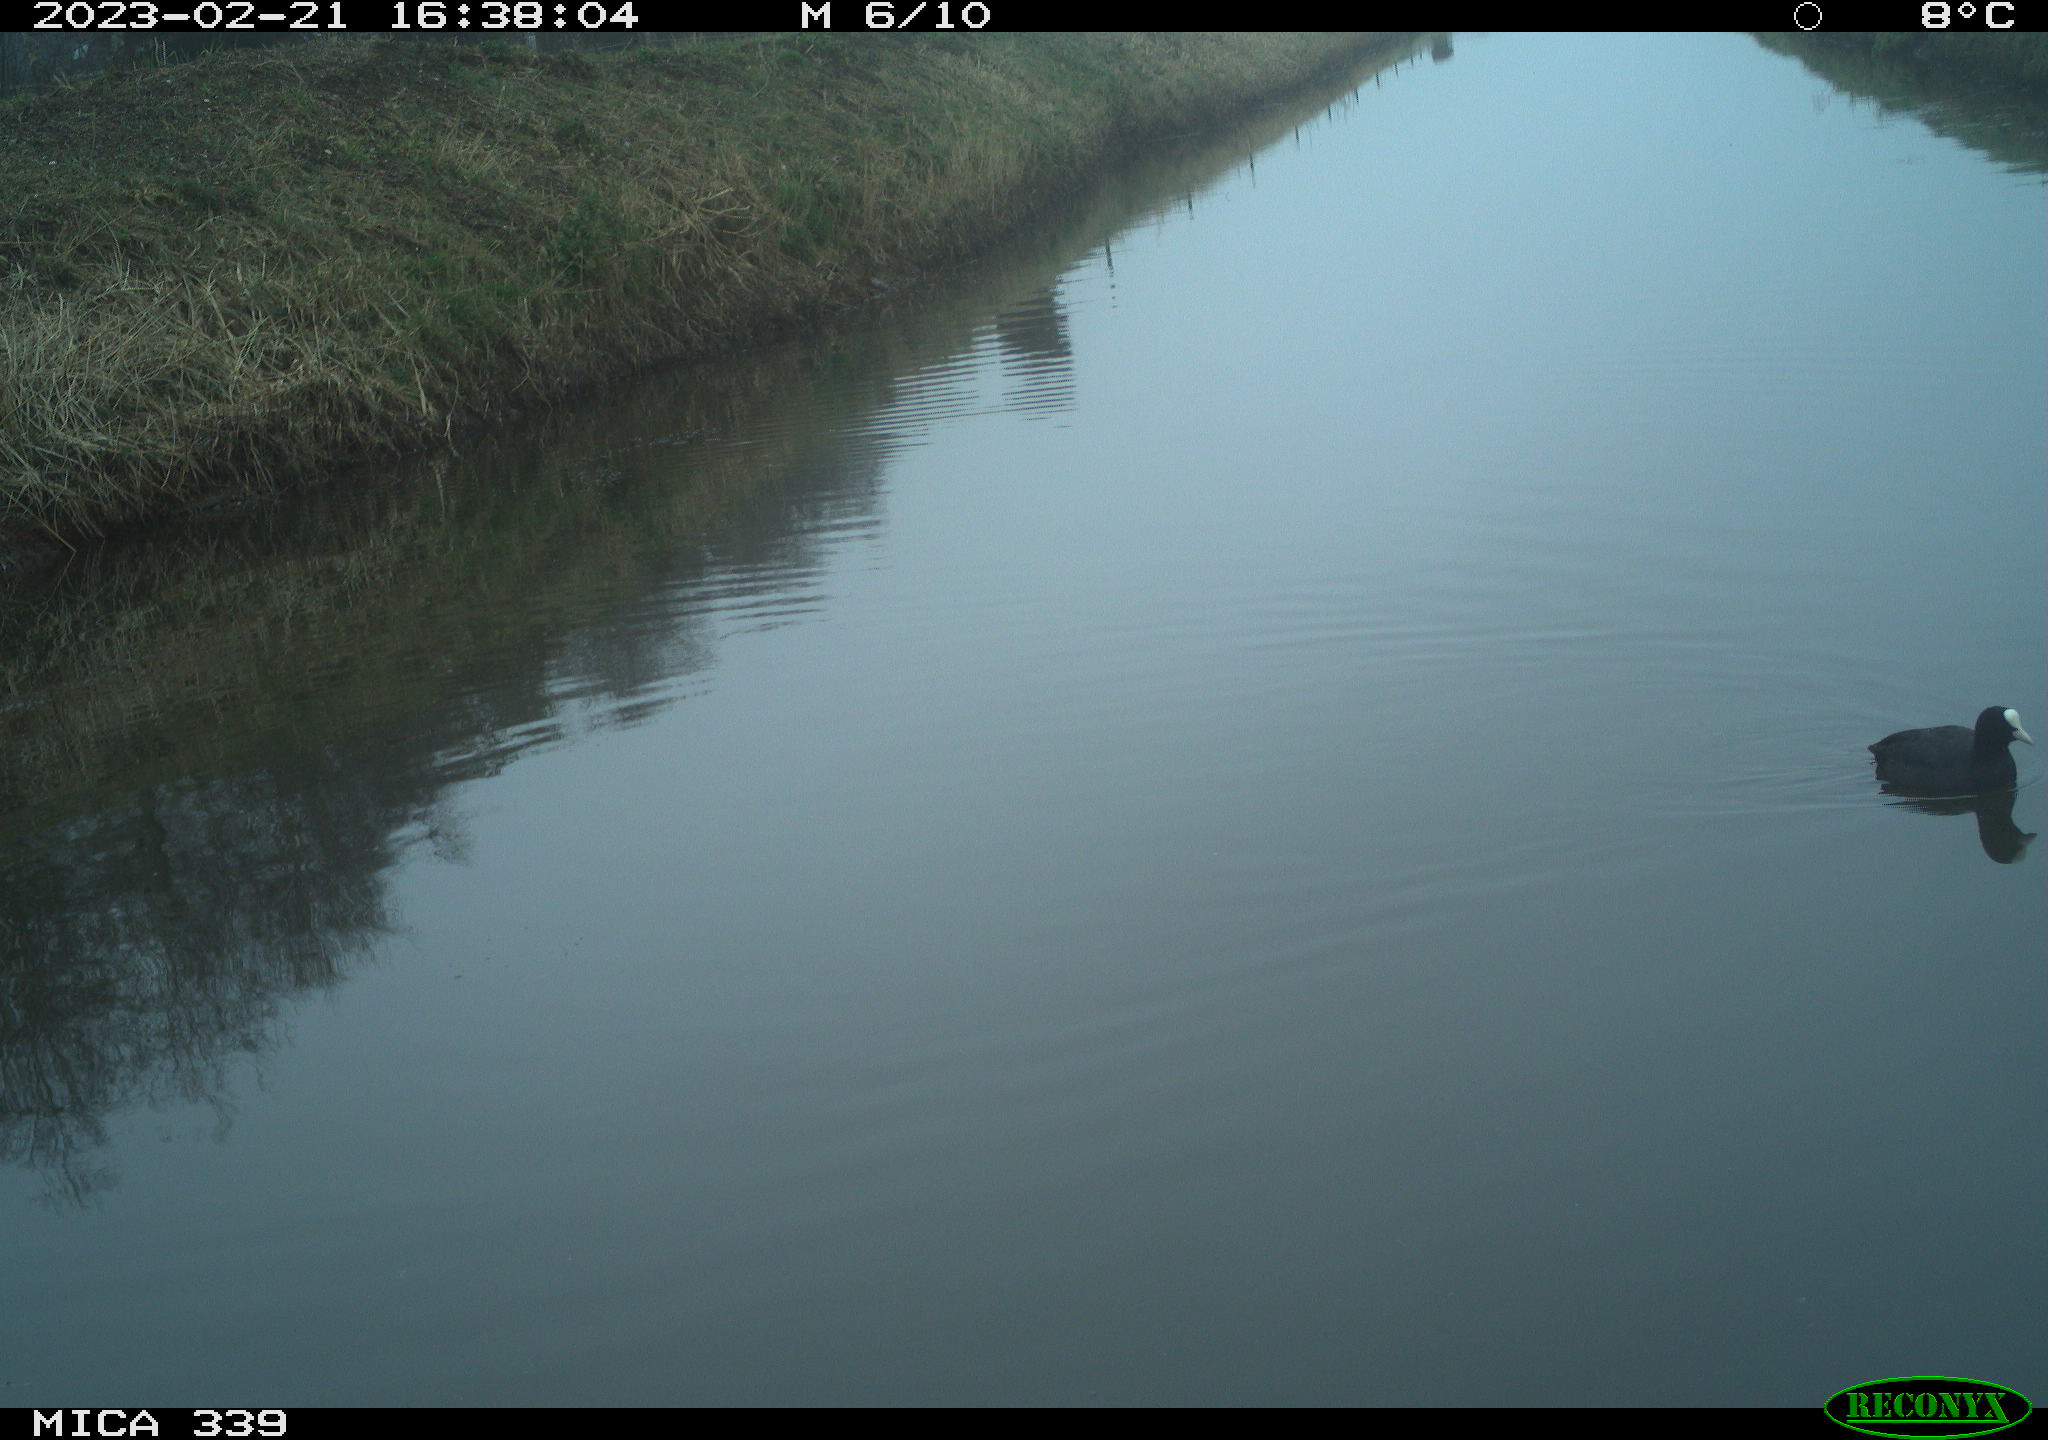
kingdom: Animalia
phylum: Chordata
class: Aves
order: Gruiformes
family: Rallidae
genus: Fulica
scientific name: Fulica atra
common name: Eurasian coot
